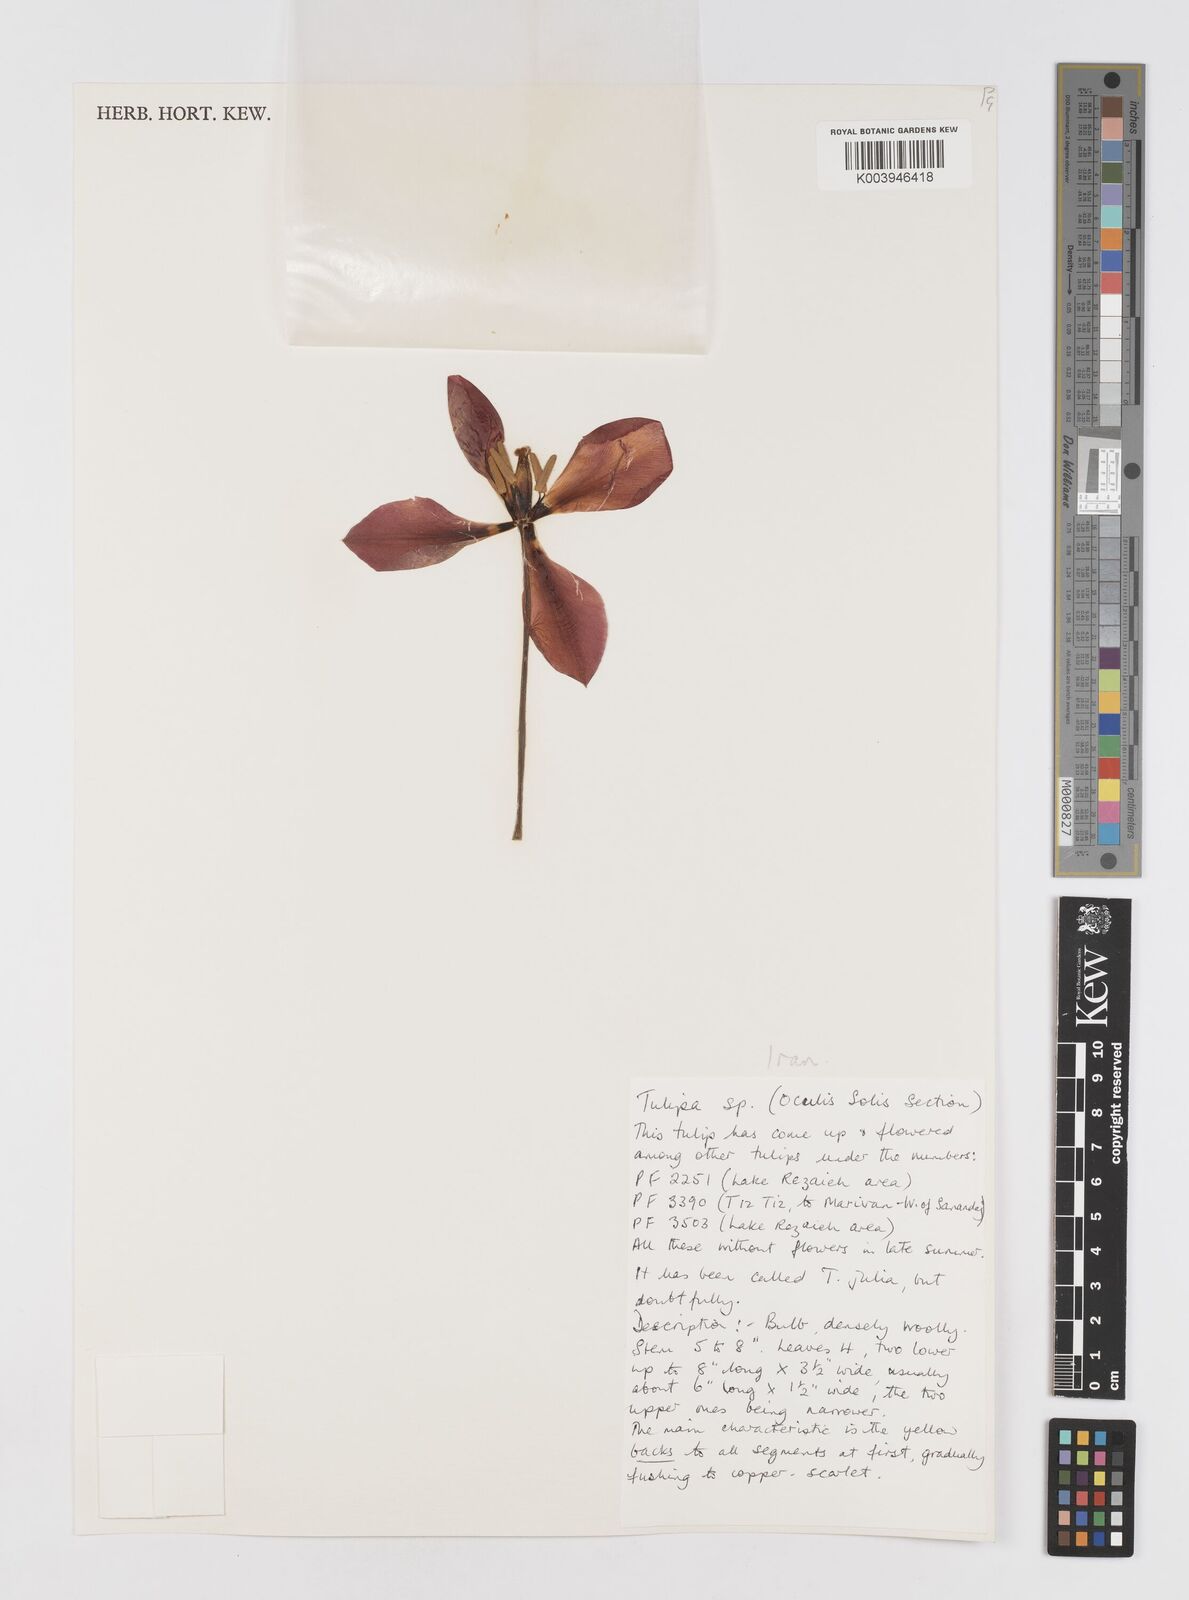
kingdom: Plantae
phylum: Tracheophyta
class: Liliopsida
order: Liliales
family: Liliaceae
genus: Tulipa
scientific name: Tulipa
